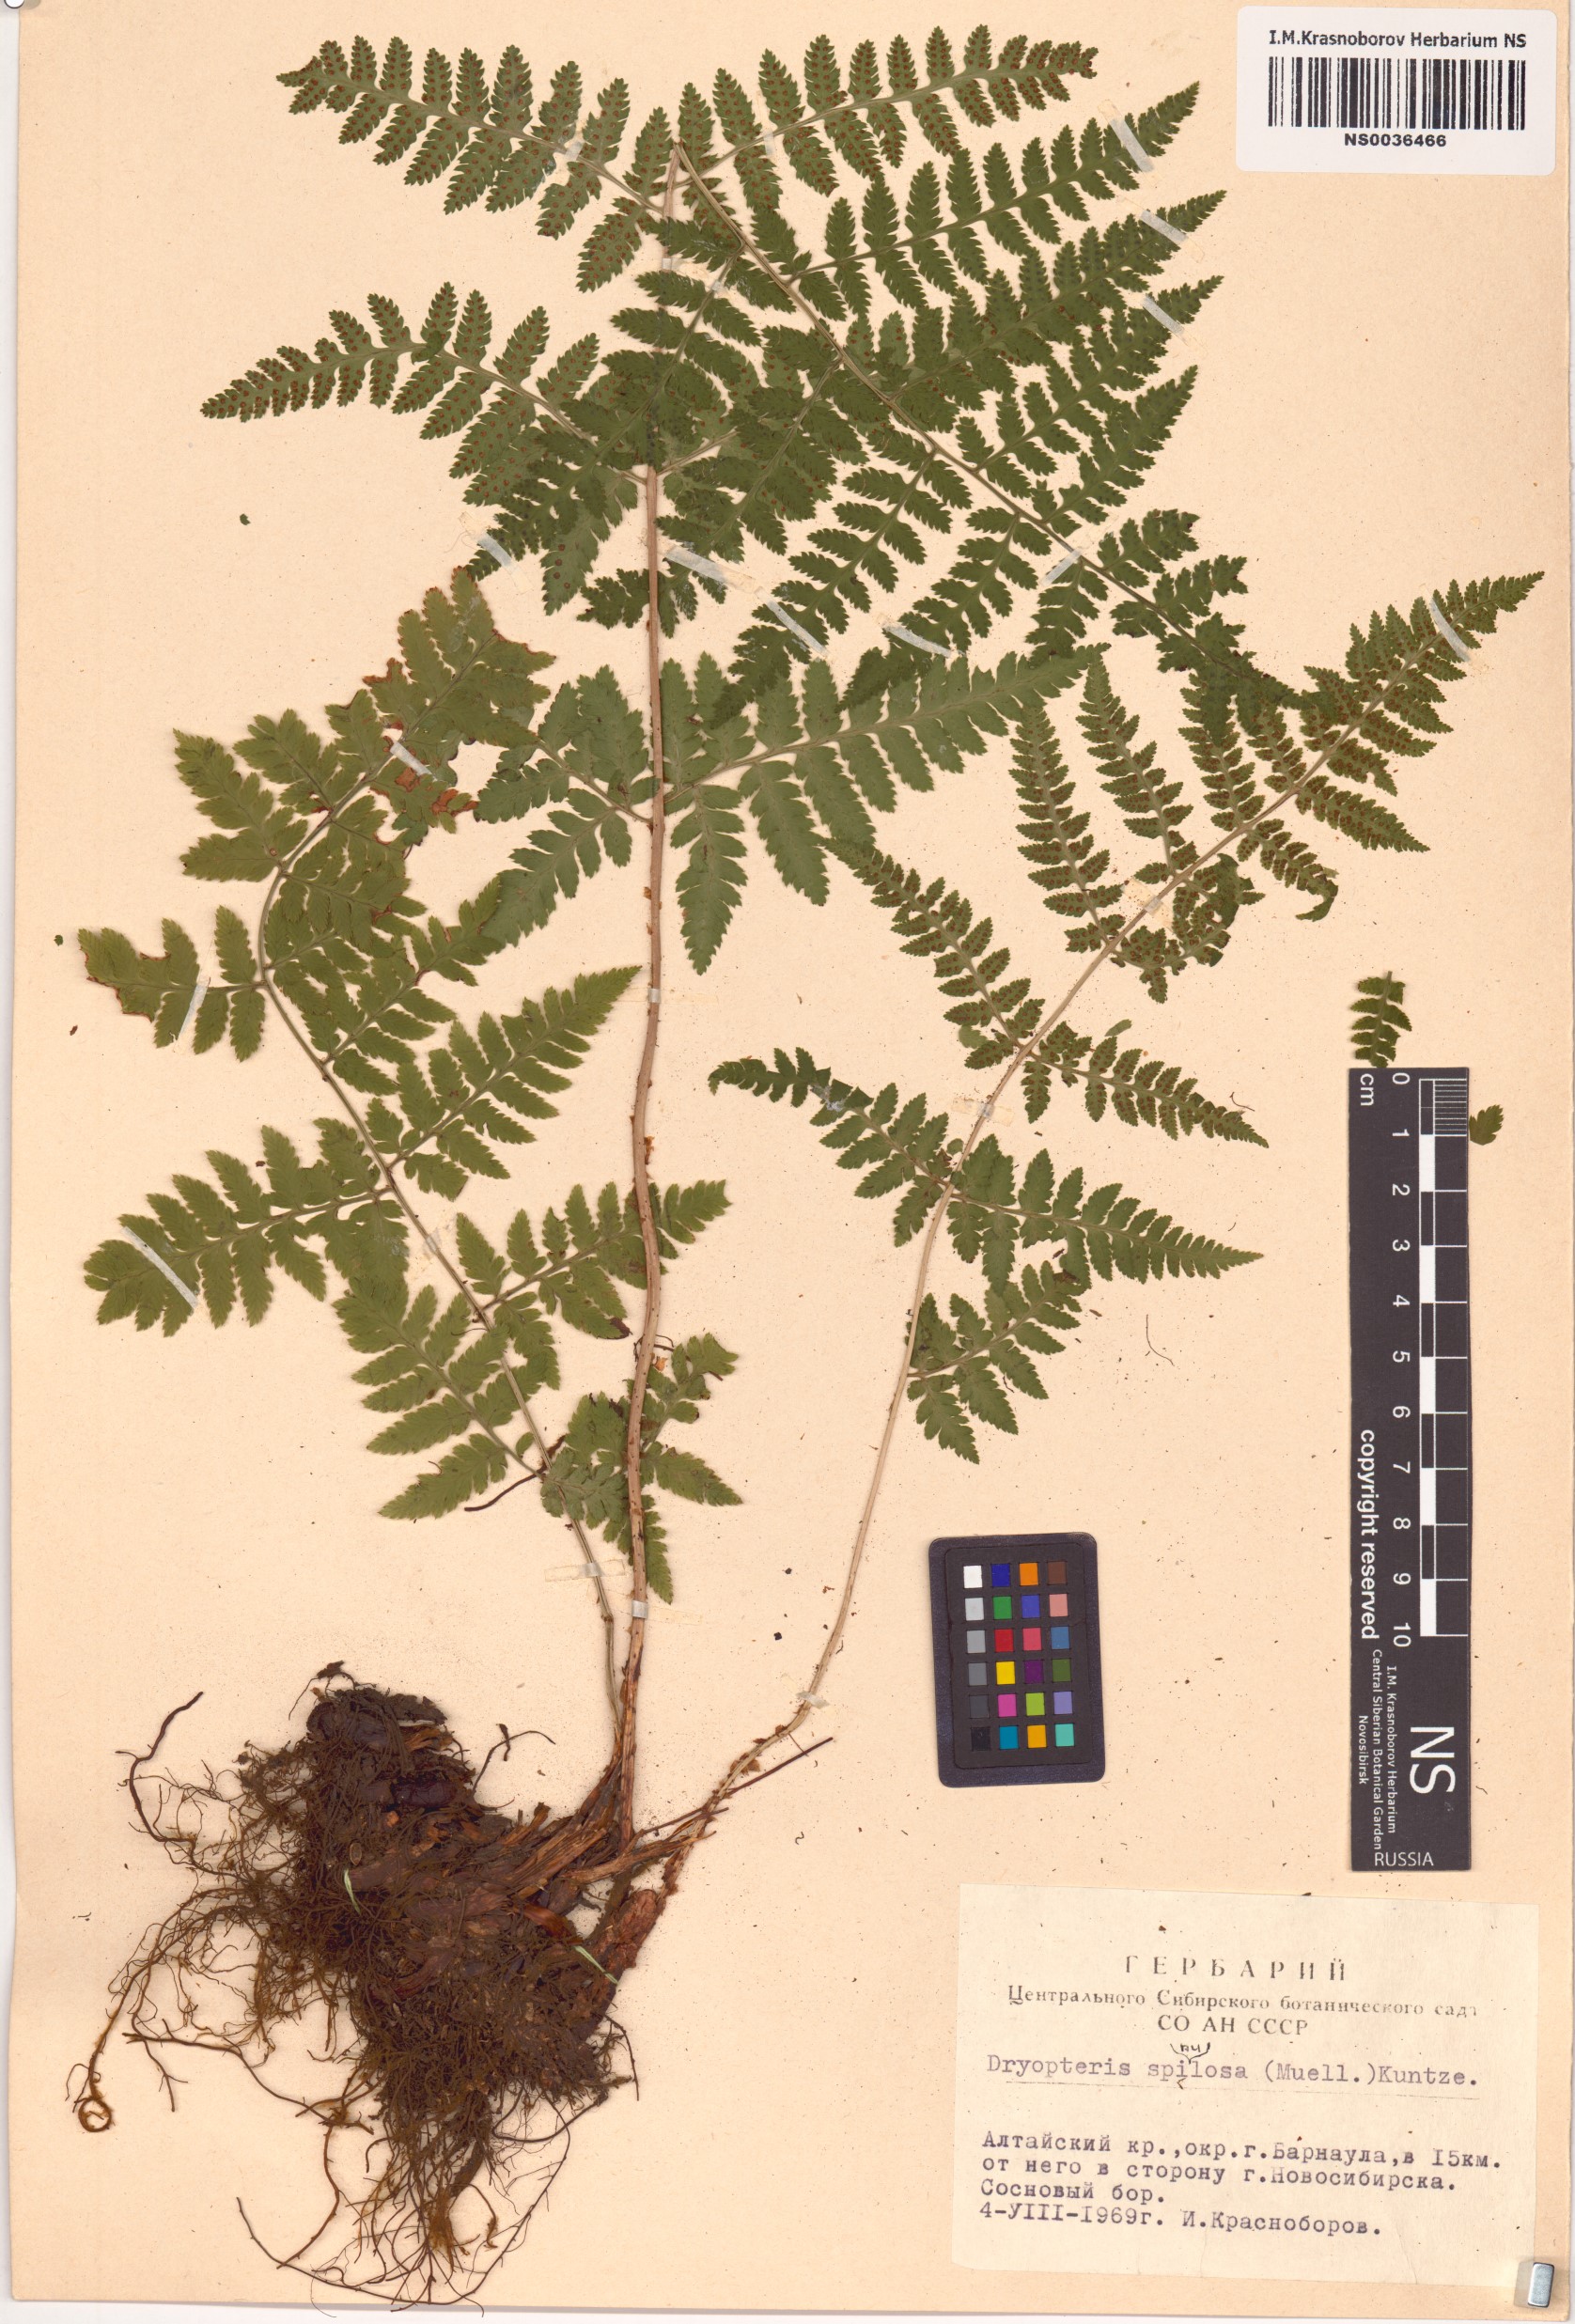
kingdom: Plantae
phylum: Tracheophyta
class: Polypodiopsida
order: Polypodiales
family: Dryopteridaceae
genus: Dryopteris
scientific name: Dryopteris carthusiana
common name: Narrow buckler-fern
